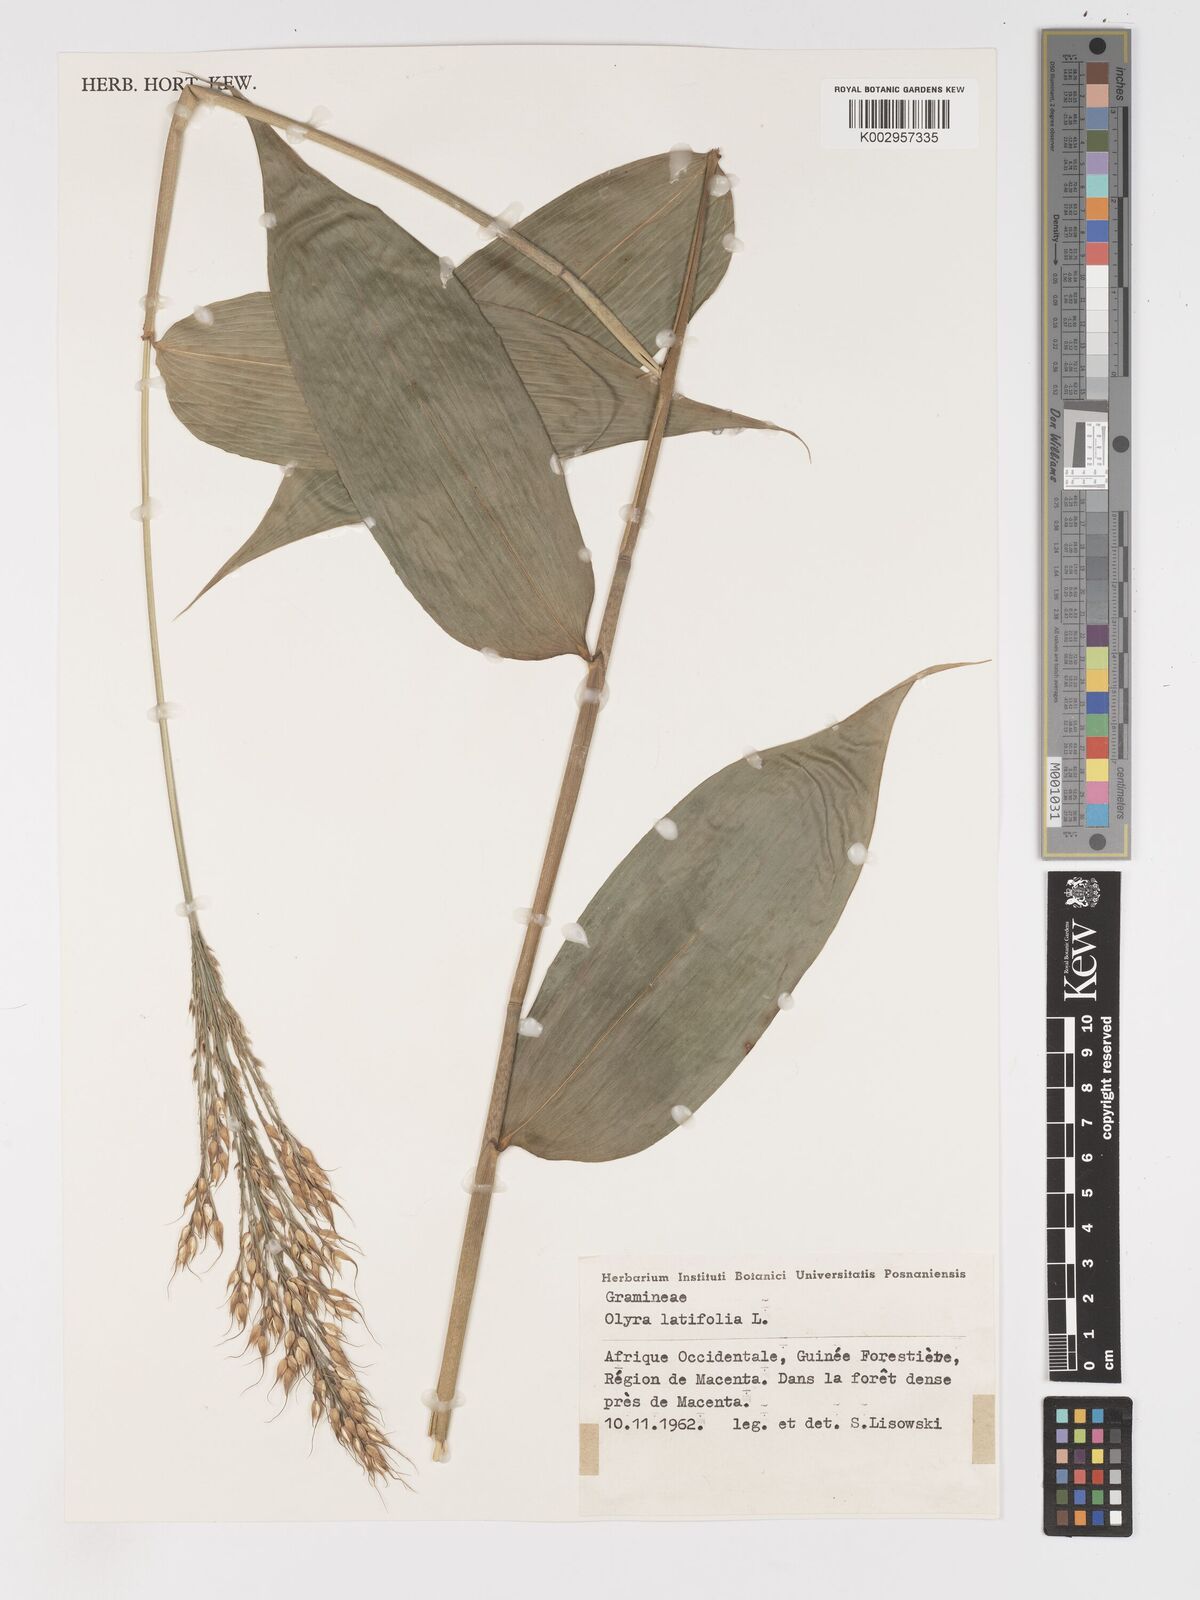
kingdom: Plantae
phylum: Tracheophyta
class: Liliopsida
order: Poales
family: Poaceae
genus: Olyra
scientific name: Olyra latifolia
